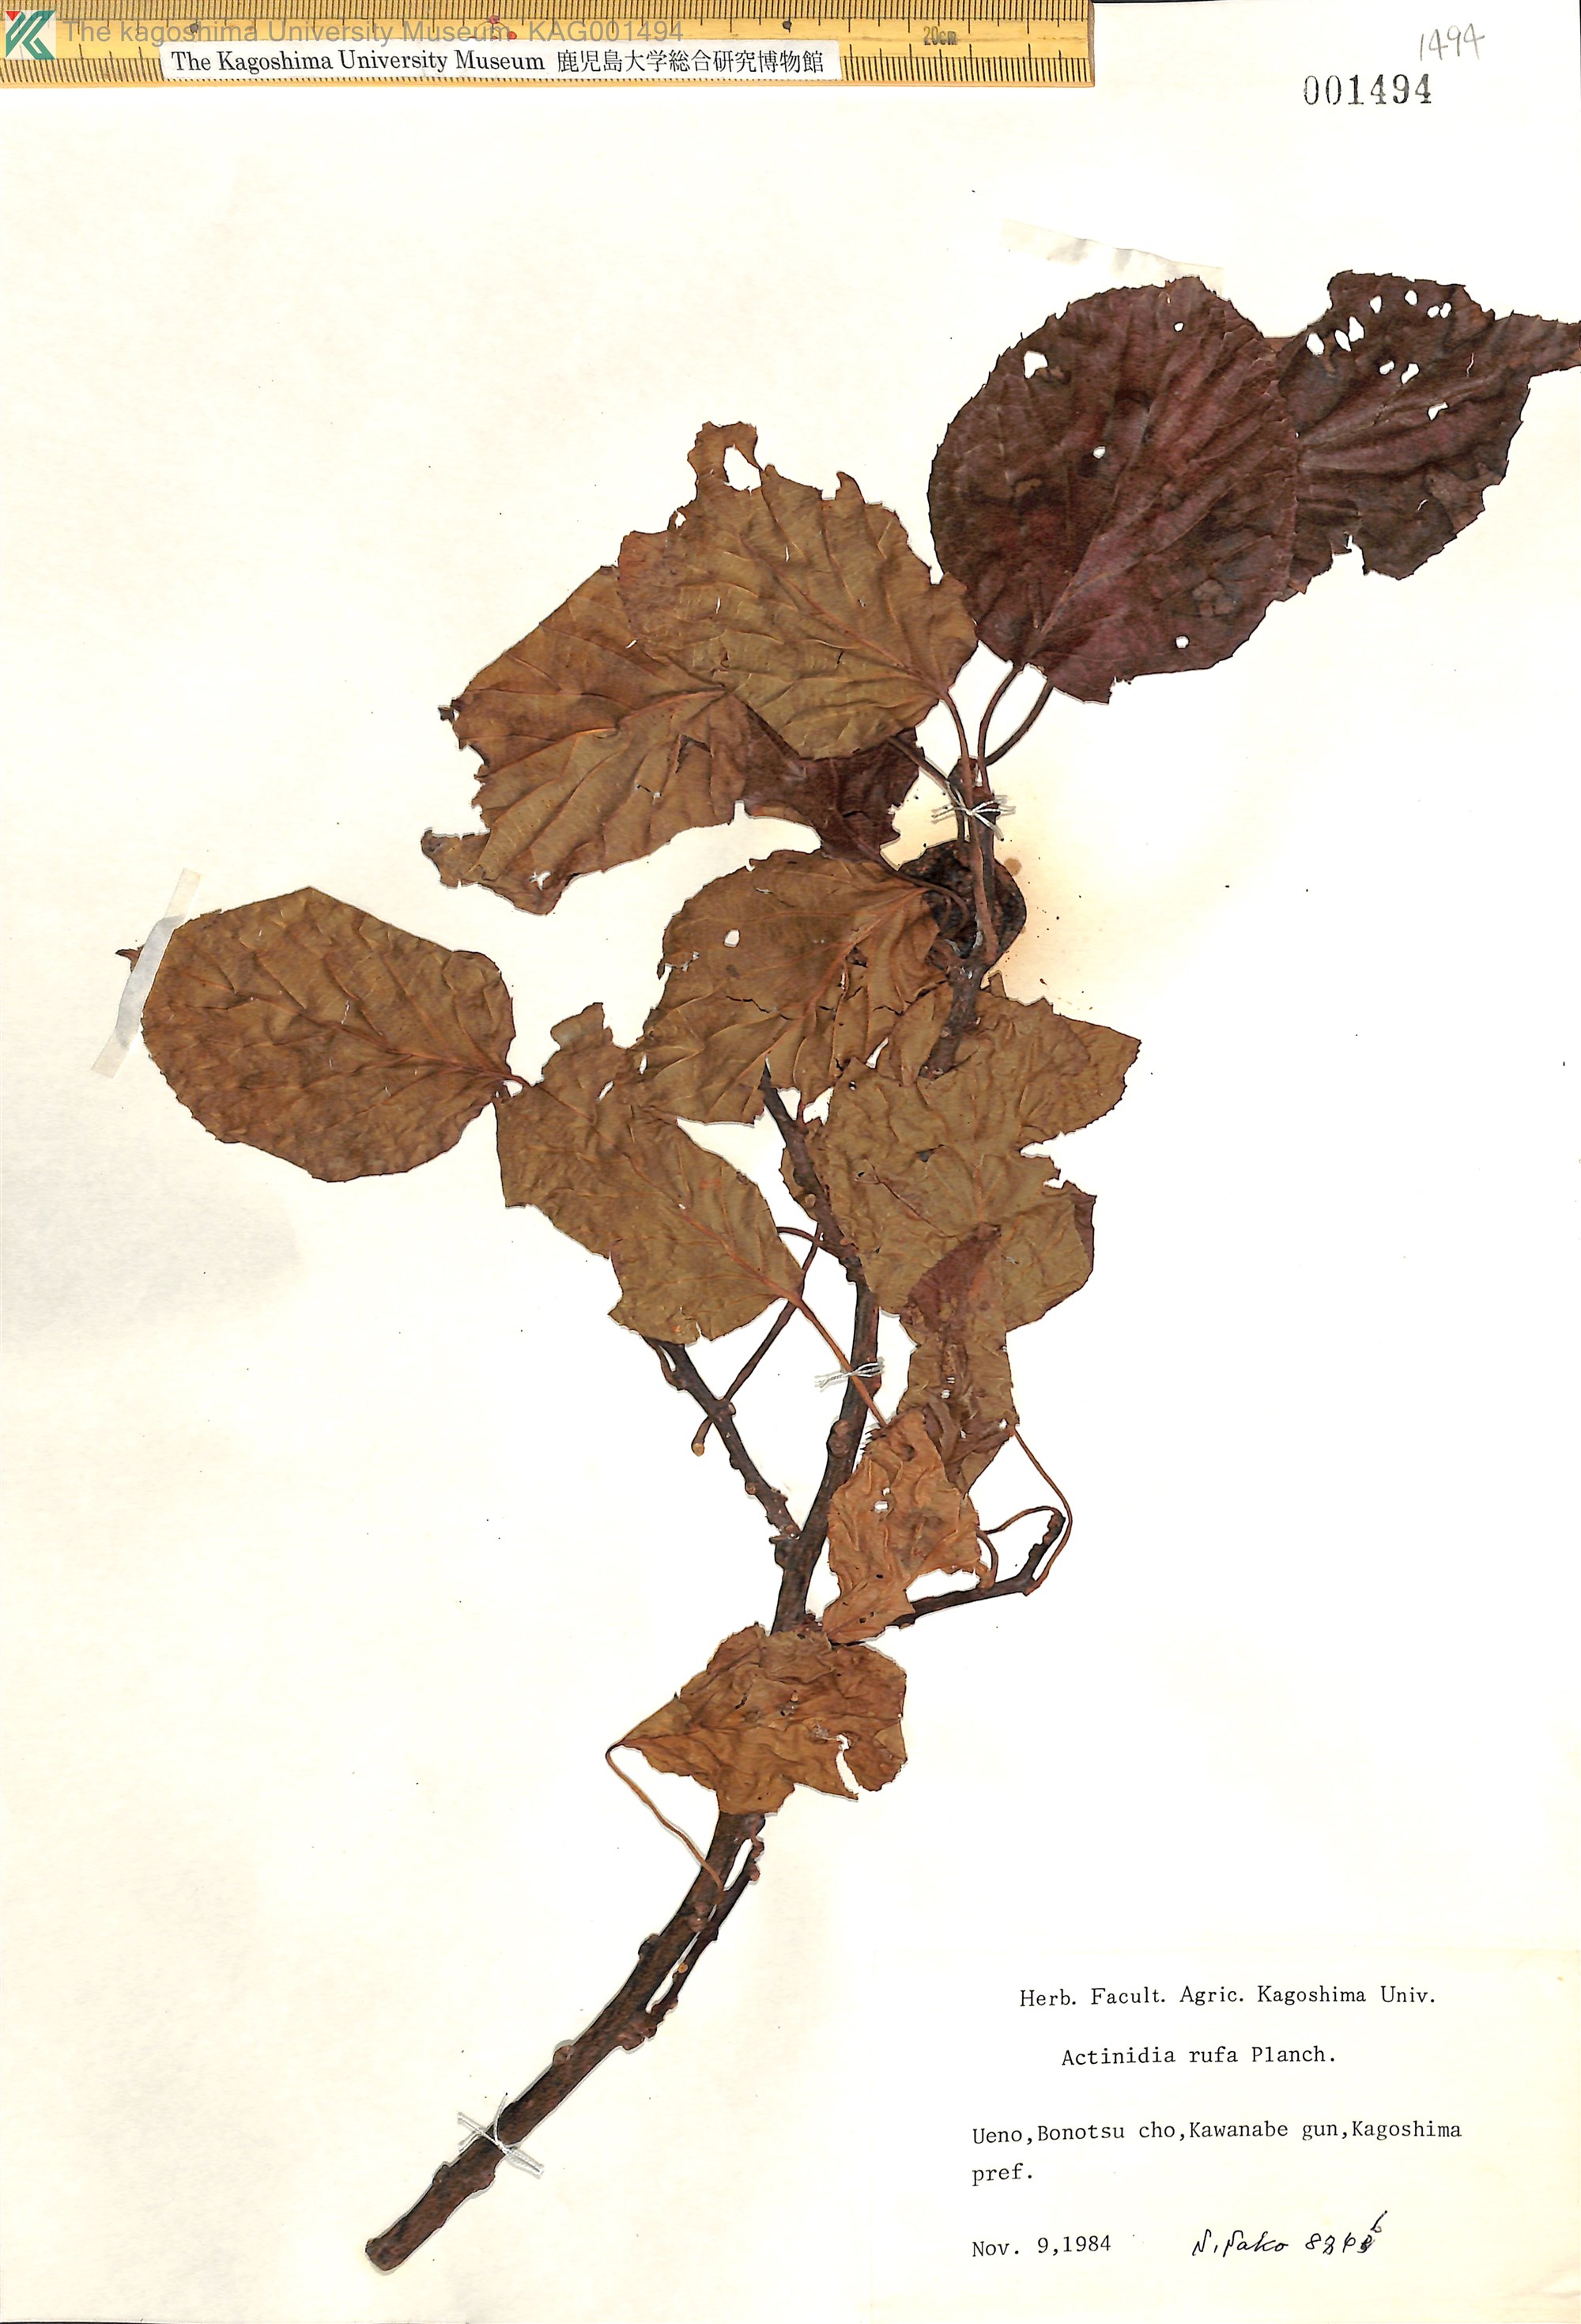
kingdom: Plantae
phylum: Tracheophyta
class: Magnoliopsida
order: Ericales
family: Actinidiaceae
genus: Actinidia
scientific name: Actinidia rufa
